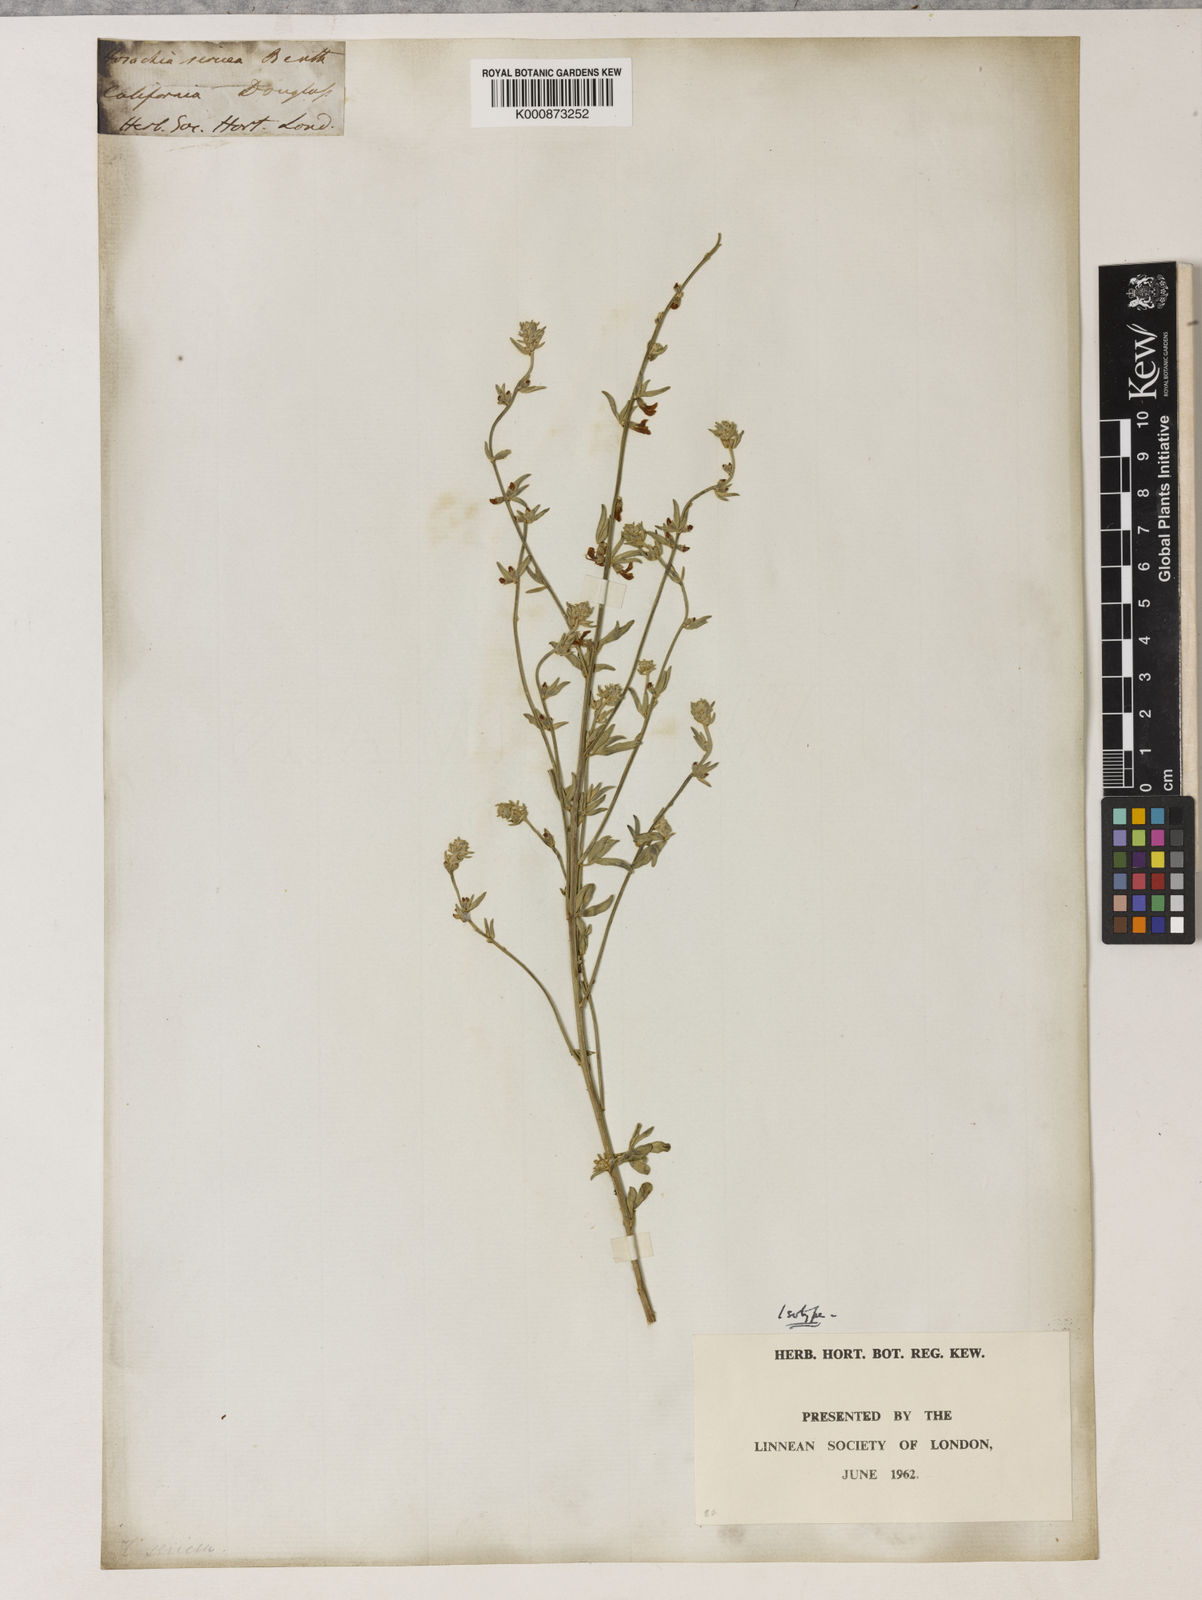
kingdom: Plantae
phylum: Tracheophyta
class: Magnoliopsida
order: Fabales
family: Fabaceae
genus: Acmispon
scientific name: Acmispon procumbens
